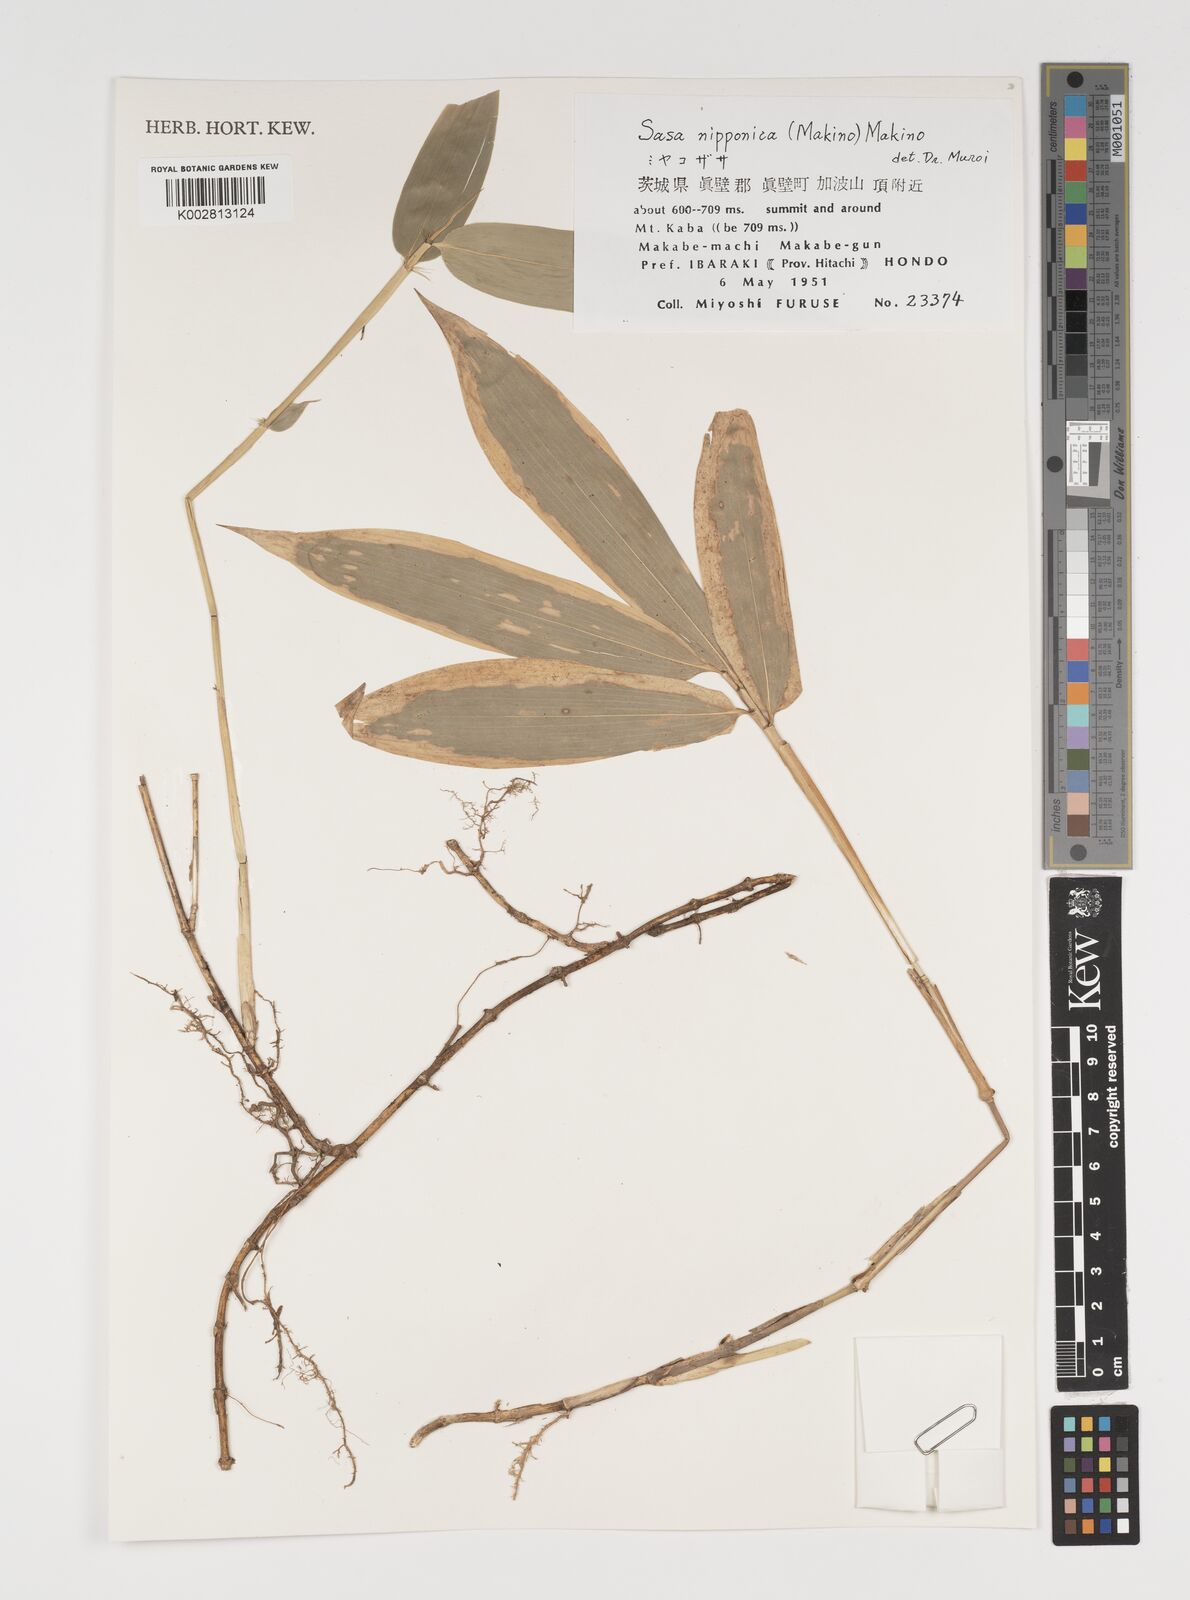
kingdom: Plantae
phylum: Tracheophyta
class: Liliopsida
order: Poales
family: Poaceae
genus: Sasa
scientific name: Sasa nipponica
